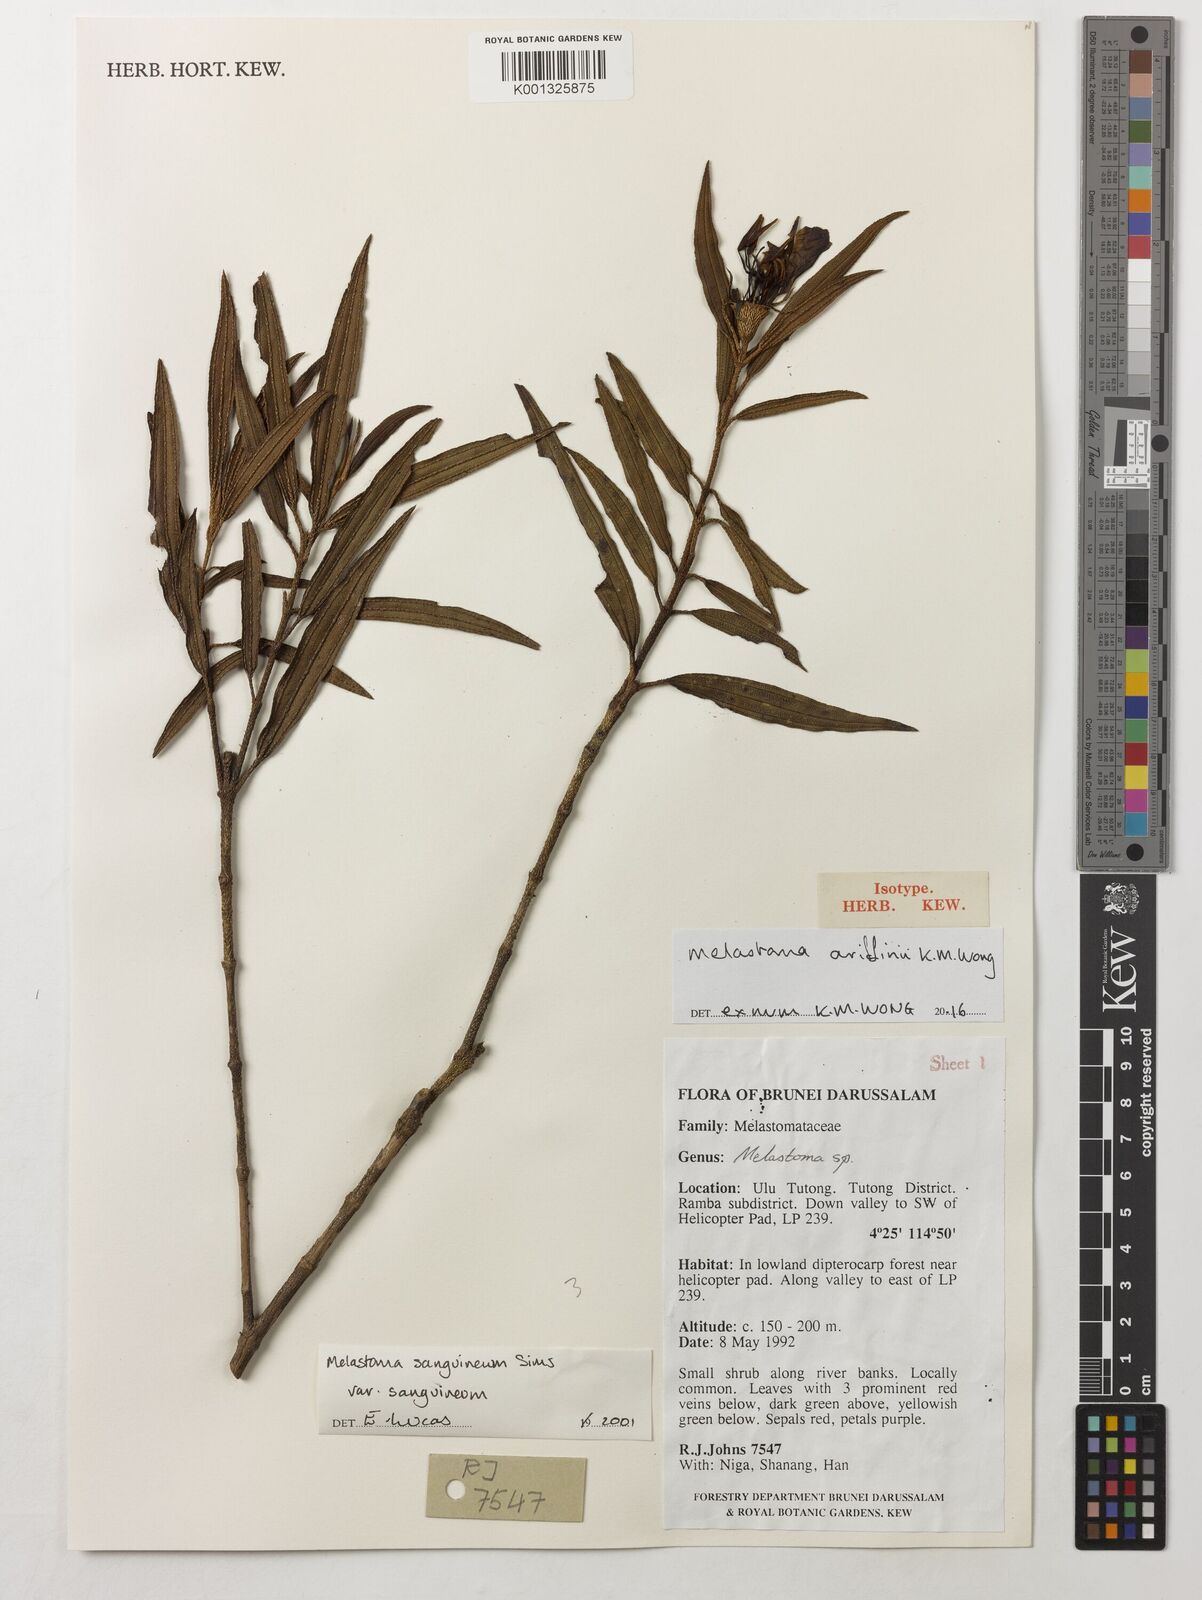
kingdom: Plantae
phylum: Tracheophyta
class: Magnoliopsida
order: Myrtales
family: Melastomataceae
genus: Melastoma
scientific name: Melastoma ariffinii
